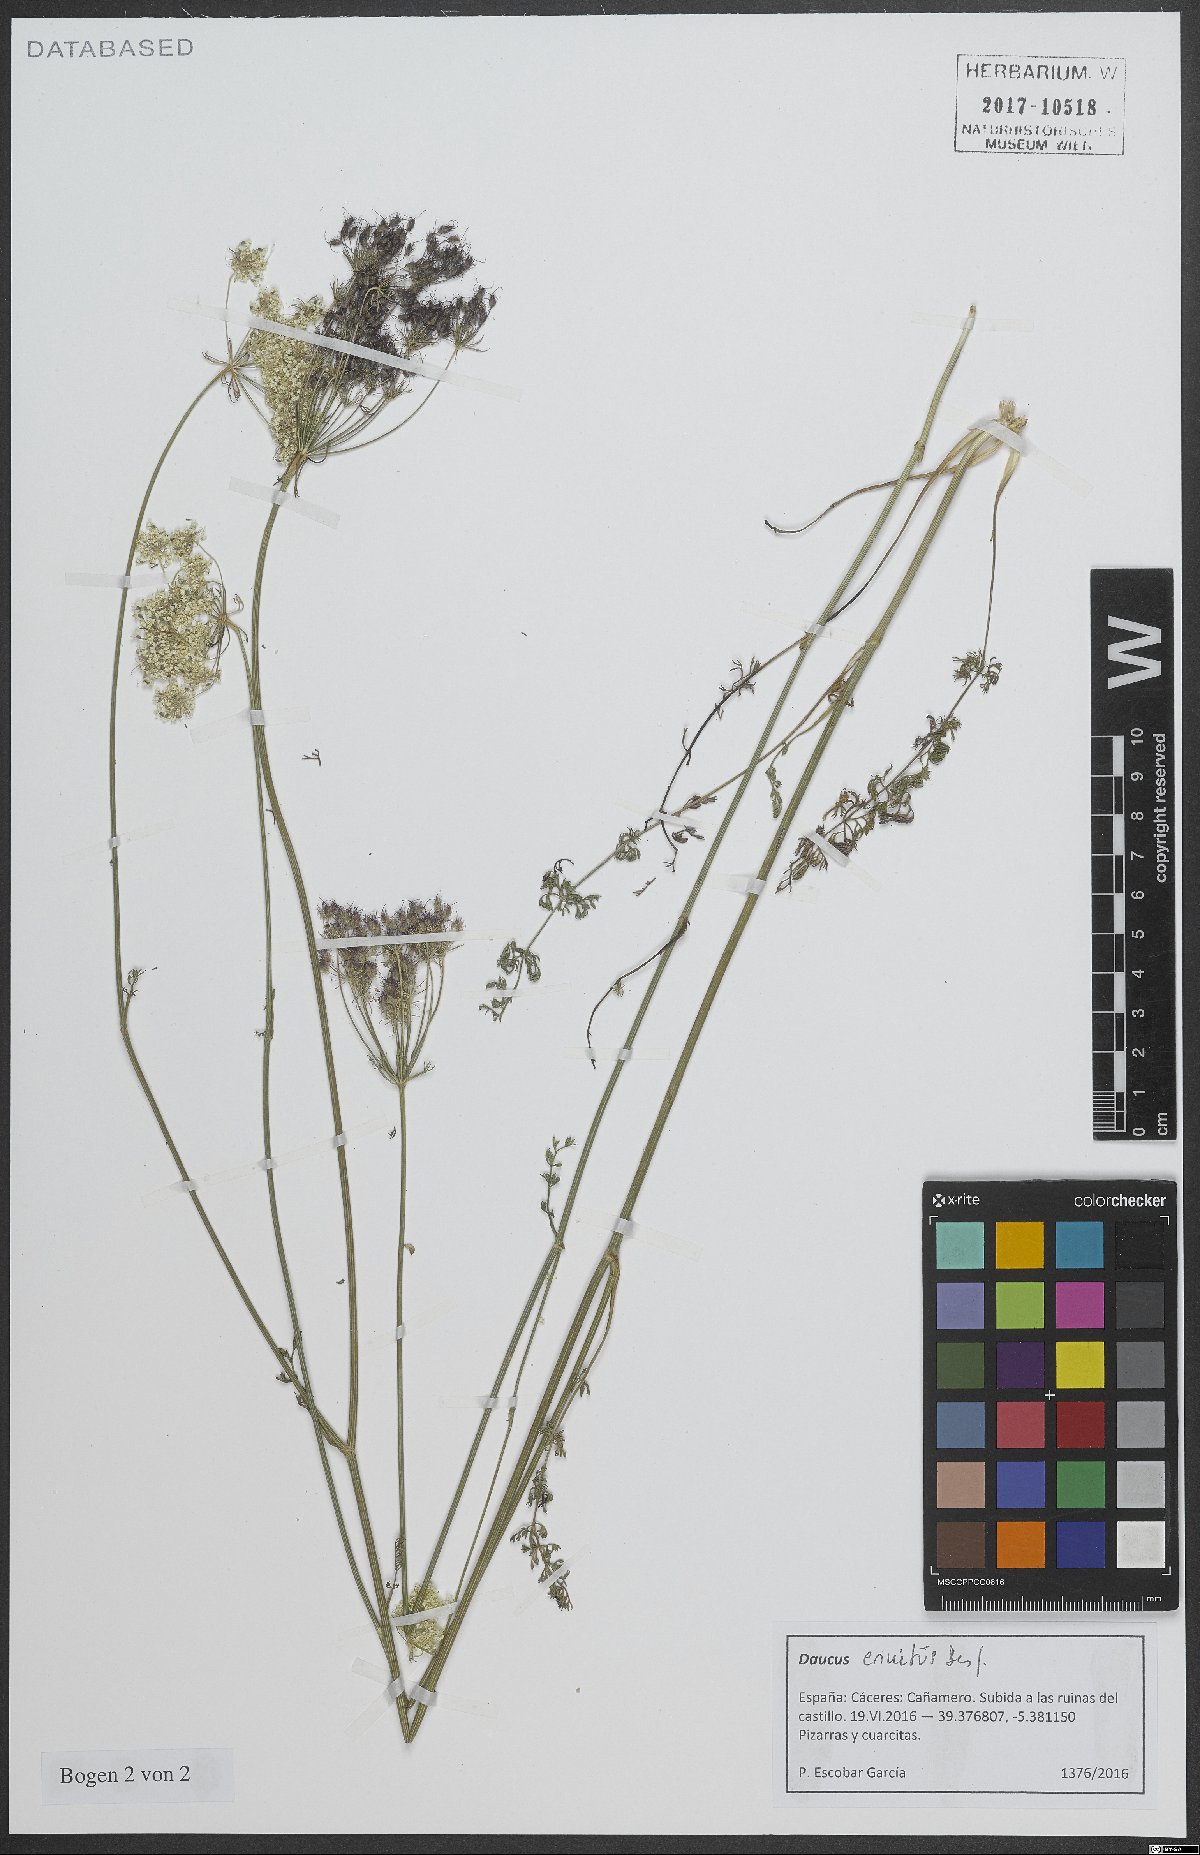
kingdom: Plantae
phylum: Tracheophyta
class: Magnoliopsida
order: Apiales
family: Apiaceae
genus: Daucus
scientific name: Daucus crinitus
